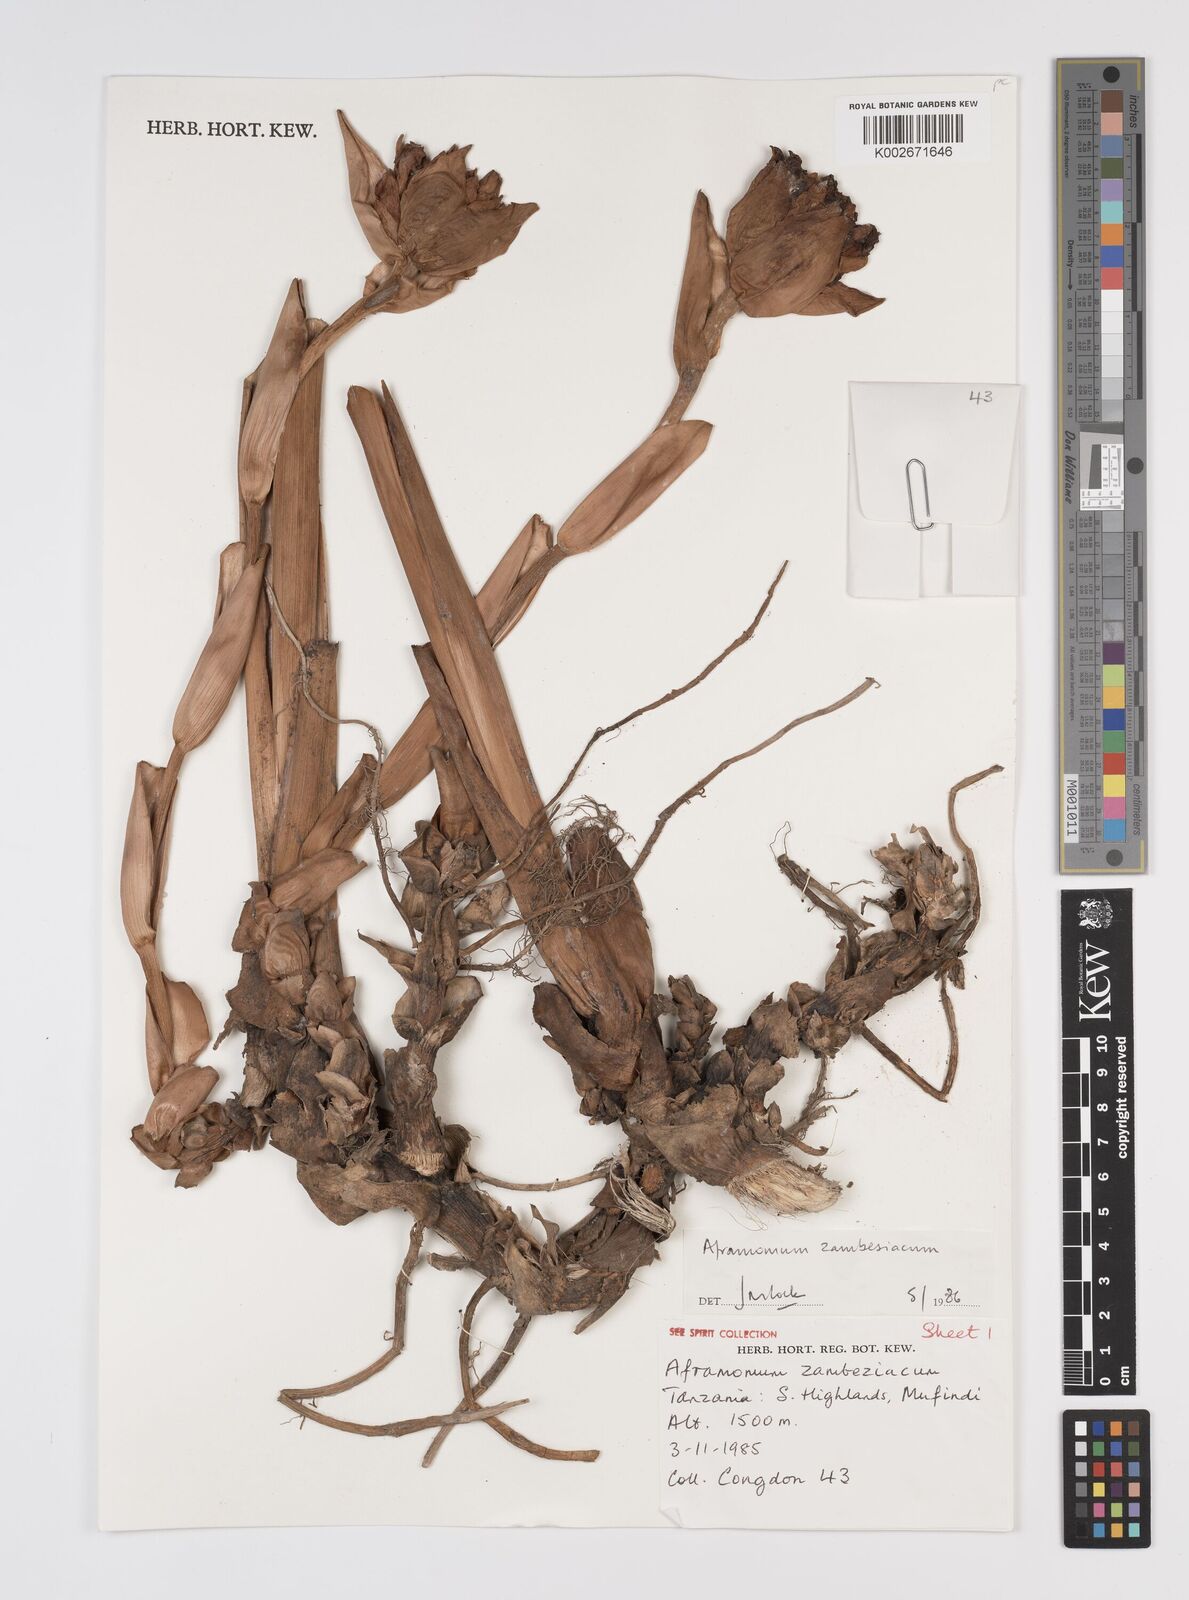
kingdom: Plantae
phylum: Tracheophyta
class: Liliopsida
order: Zingiberales
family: Zingiberaceae
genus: Aframomum
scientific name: Aframomum zambesiacum
